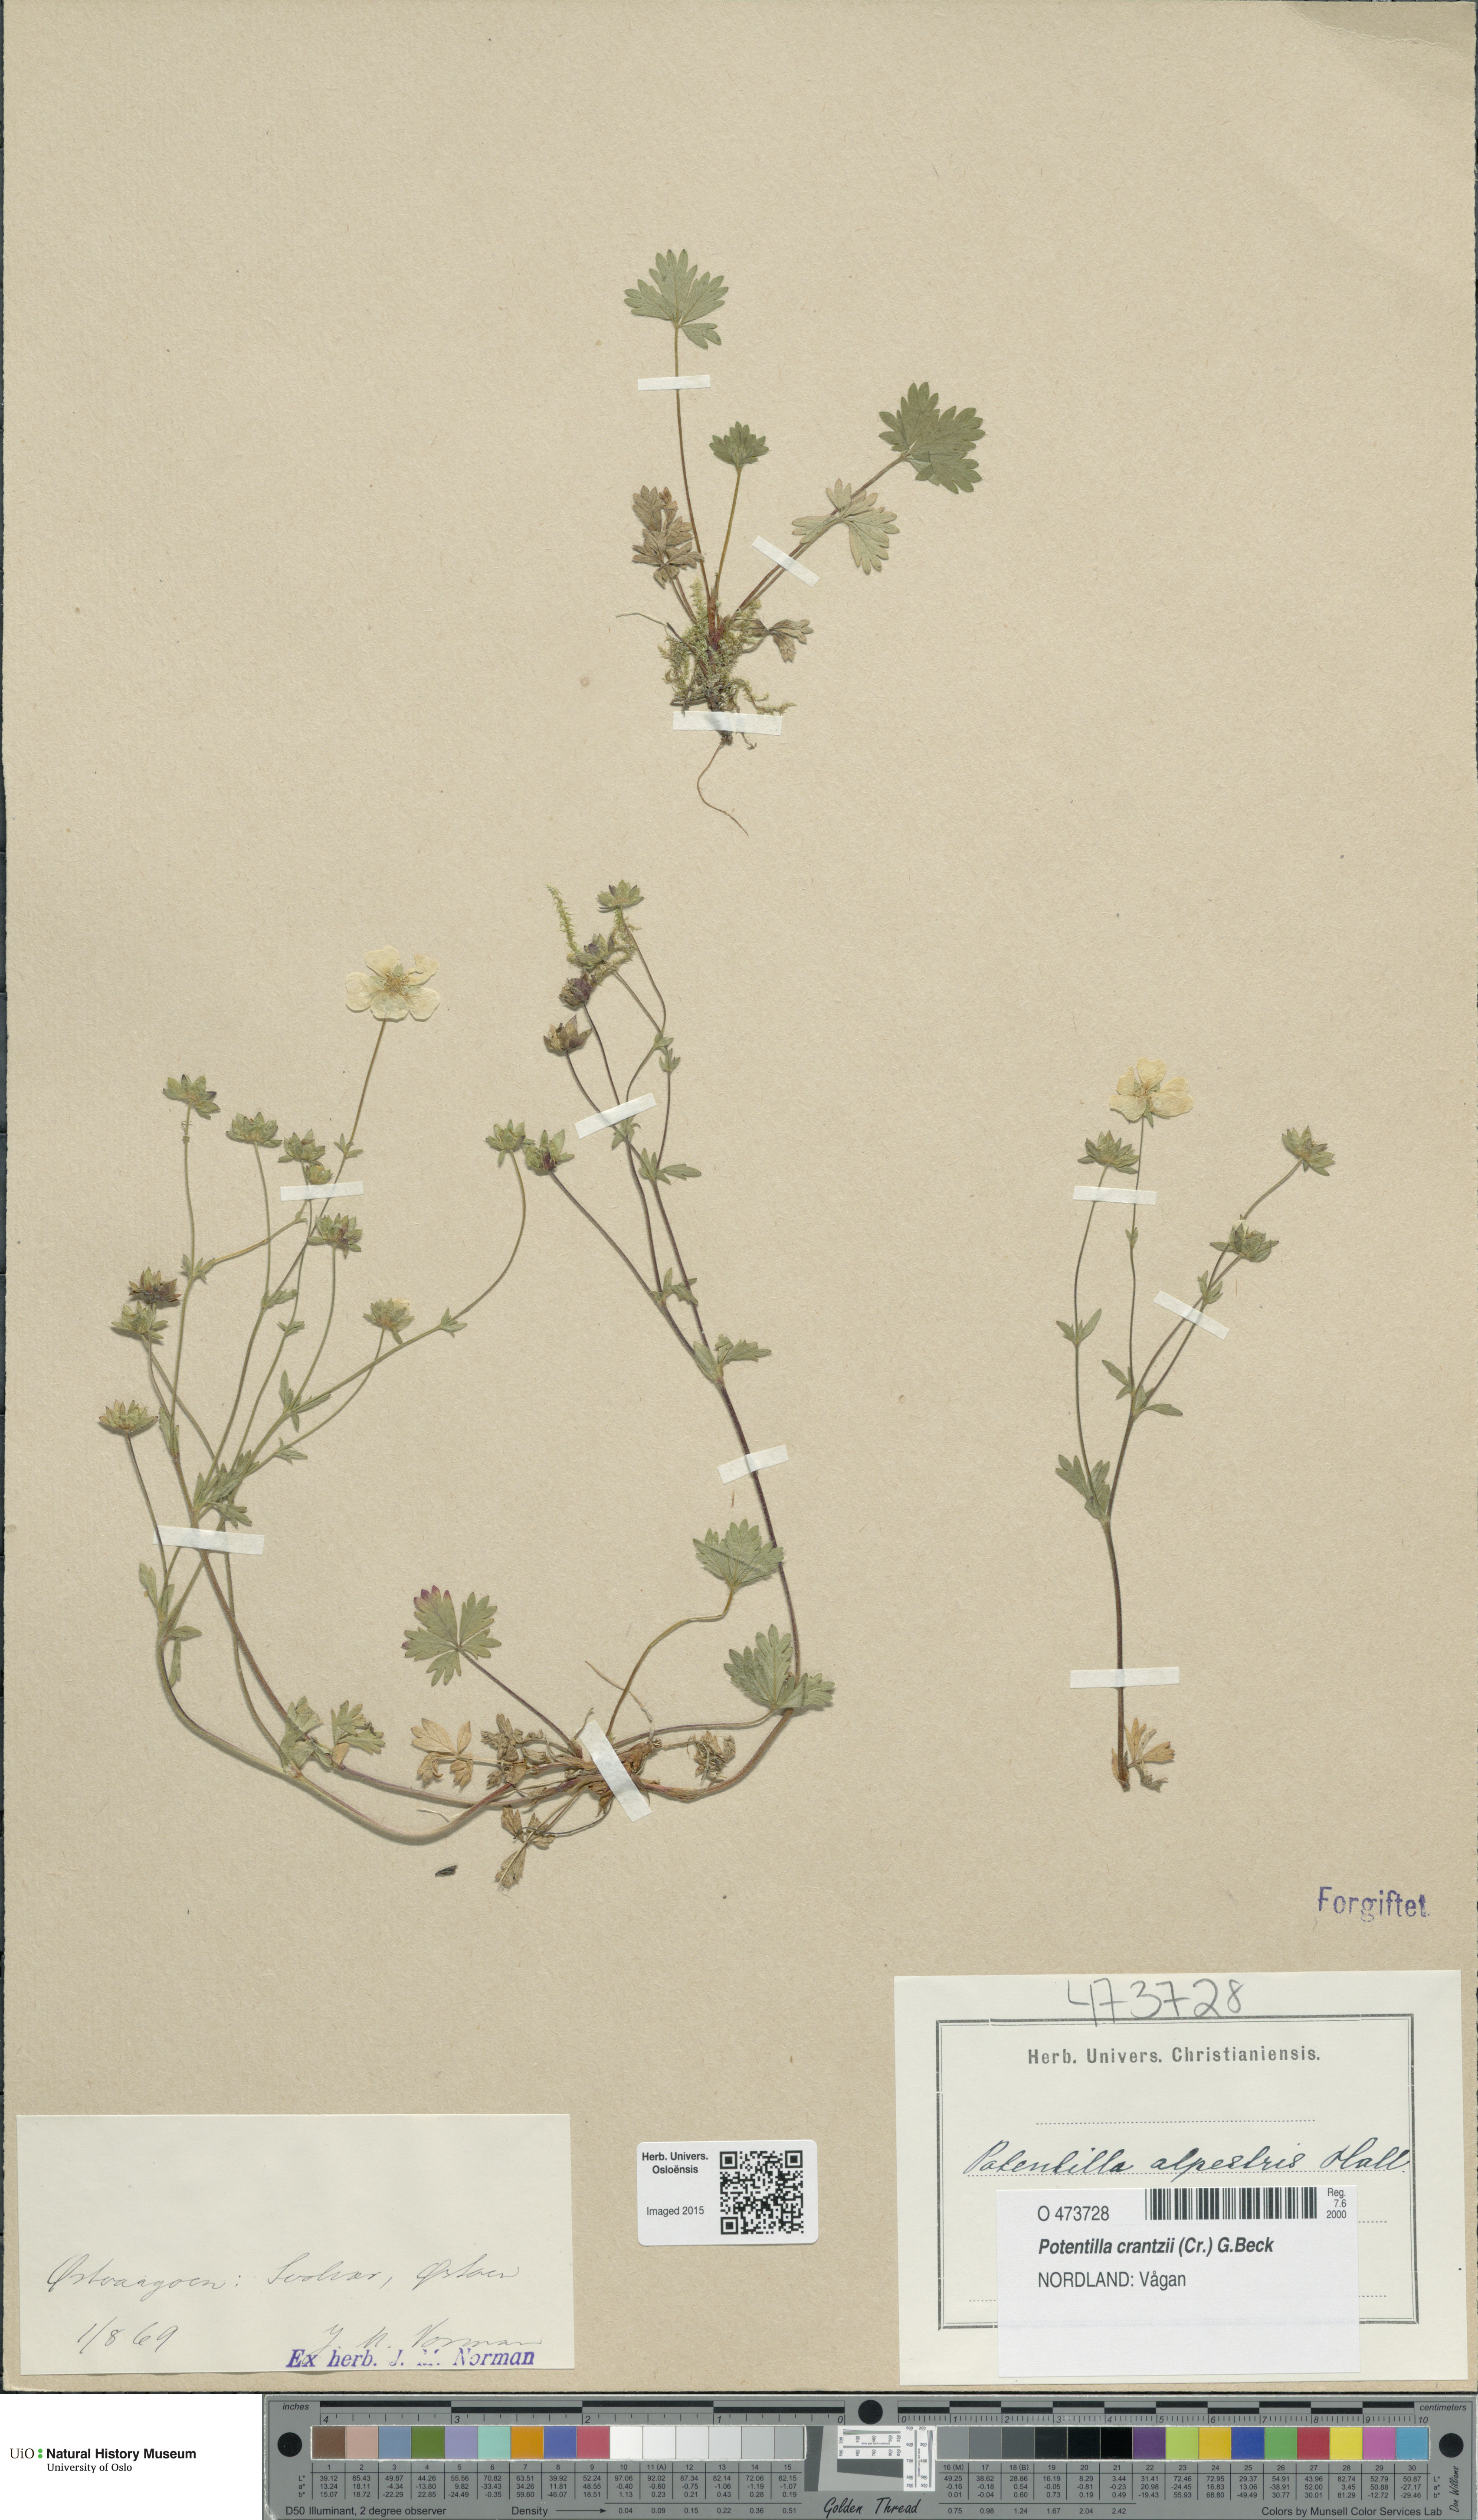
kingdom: Plantae
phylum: Tracheophyta
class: Magnoliopsida
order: Rosales
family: Rosaceae
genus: Potentilla
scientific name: Potentilla crantzii
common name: Alpine cinquefoil
